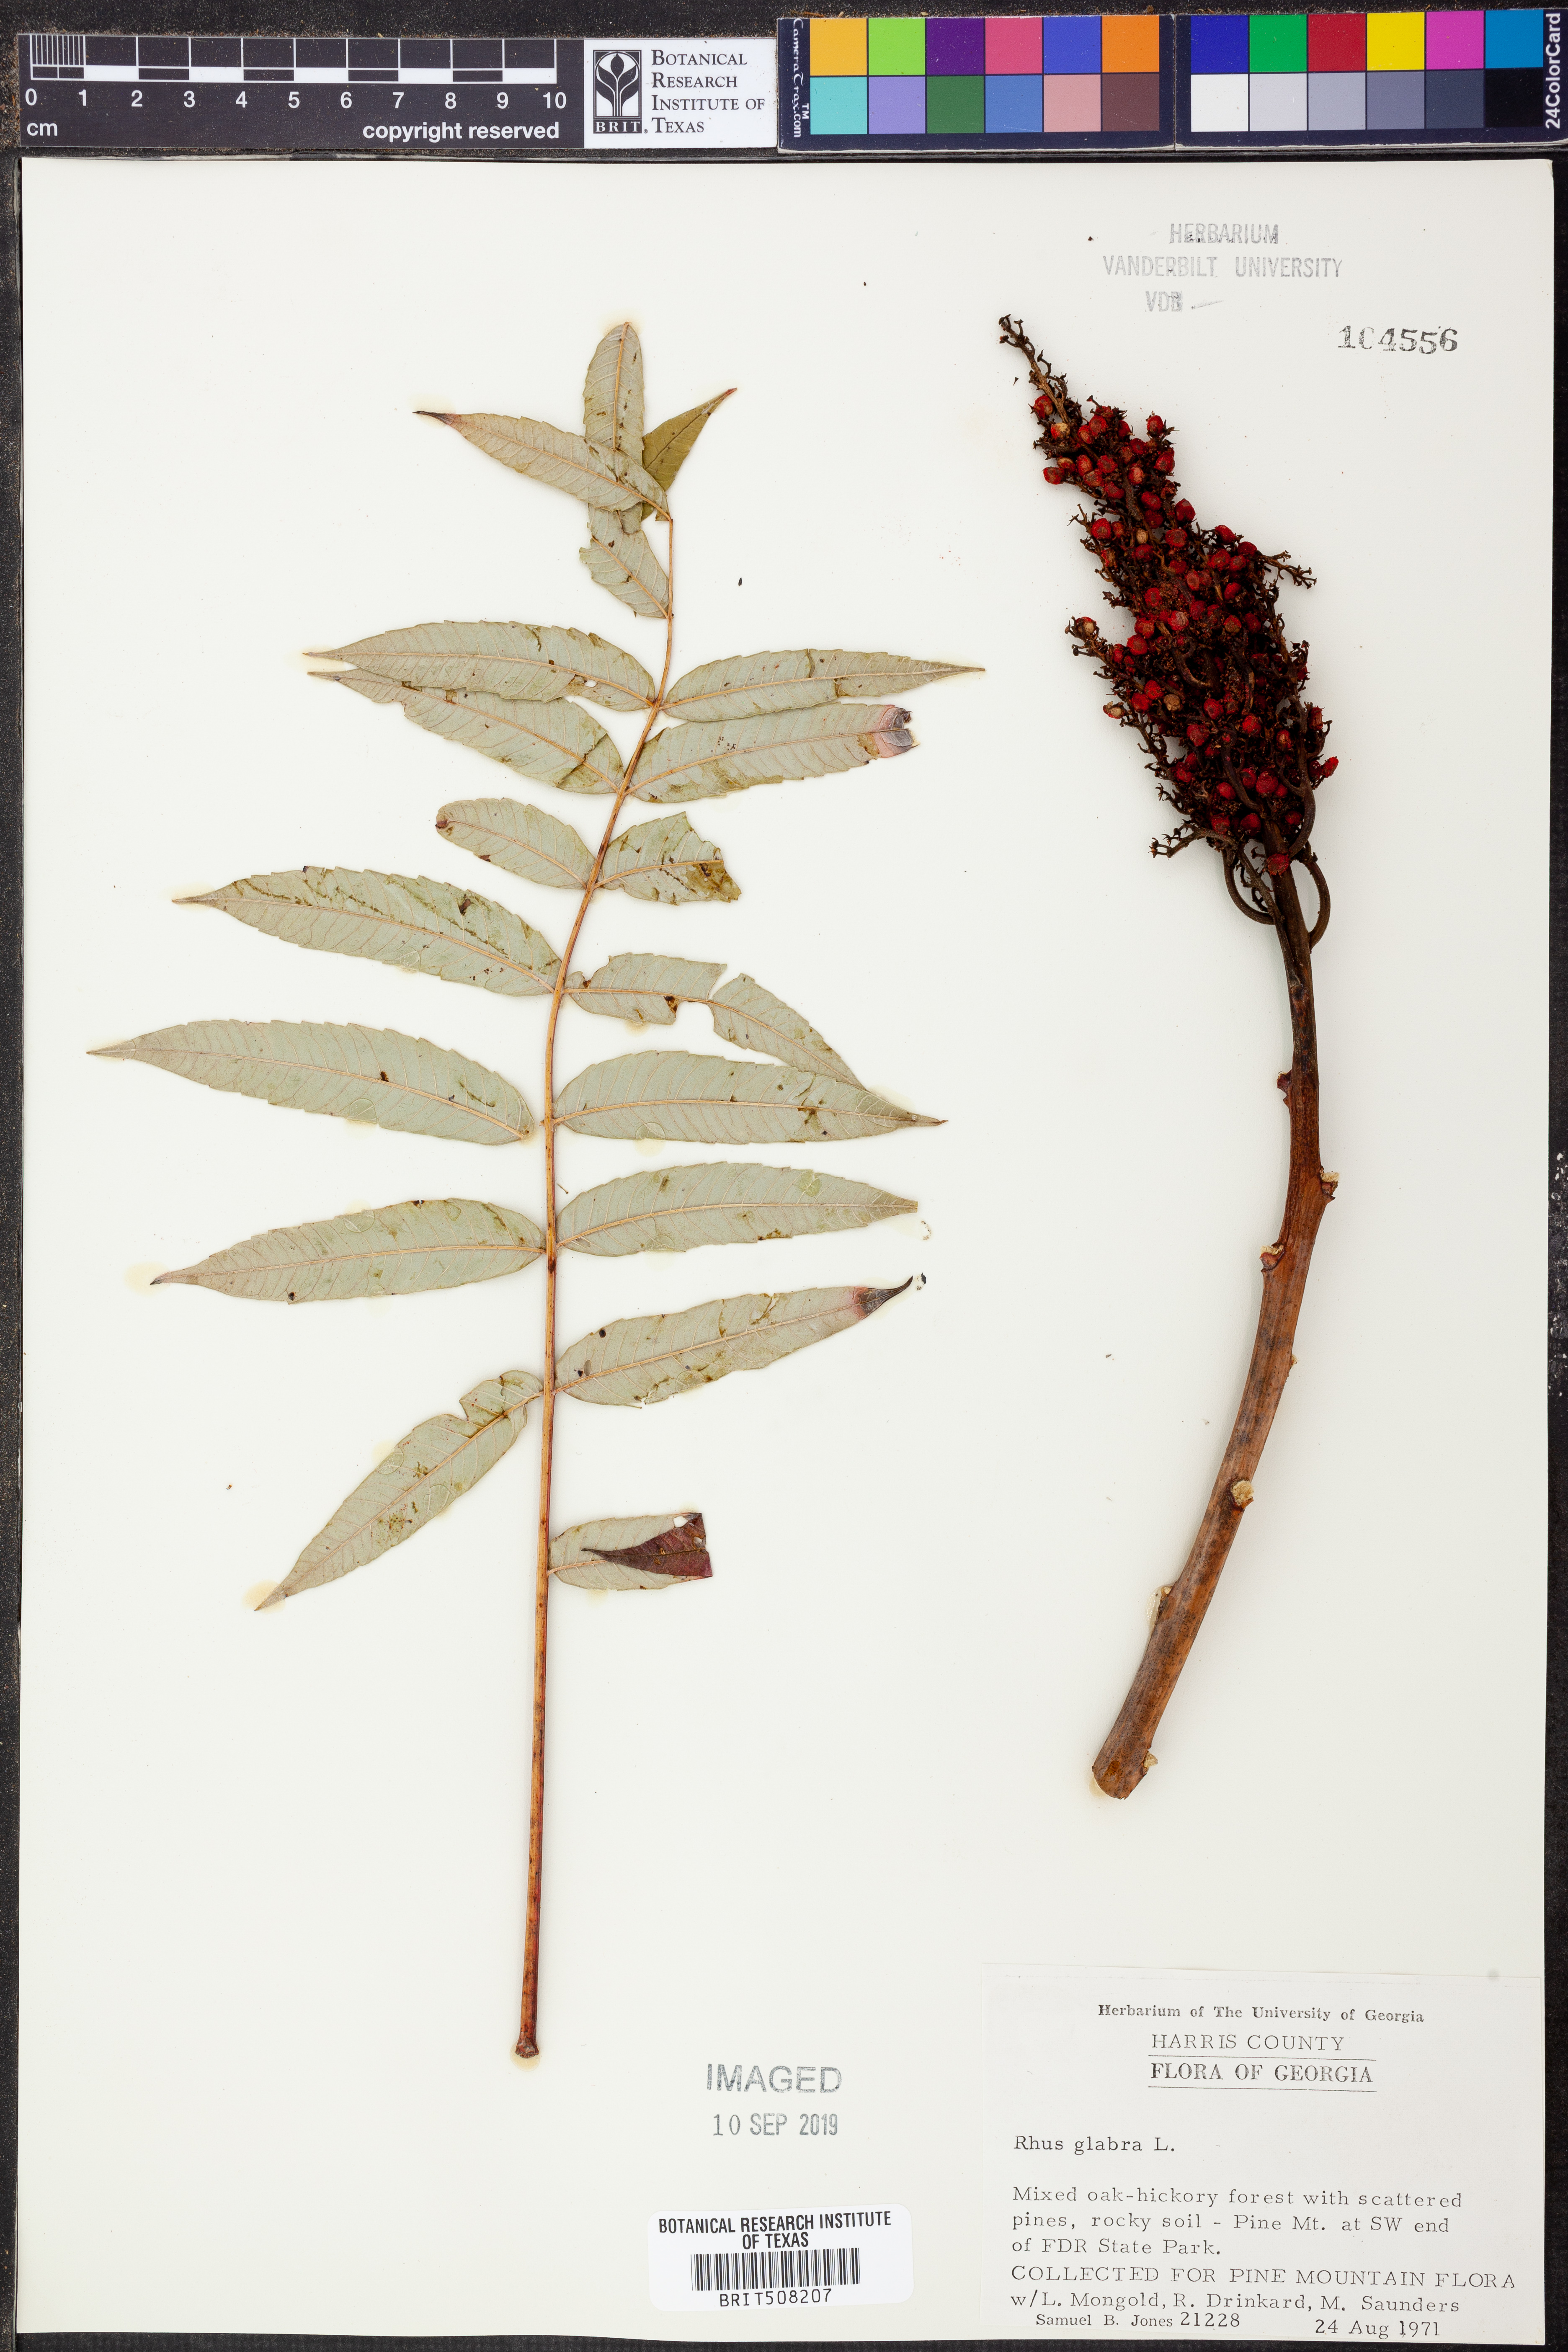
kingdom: Plantae
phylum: Tracheophyta
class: Magnoliopsida
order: Sapindales
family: Anacardiaceae
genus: Rhus
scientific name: Rhus glabra
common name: Scarlet sumac
